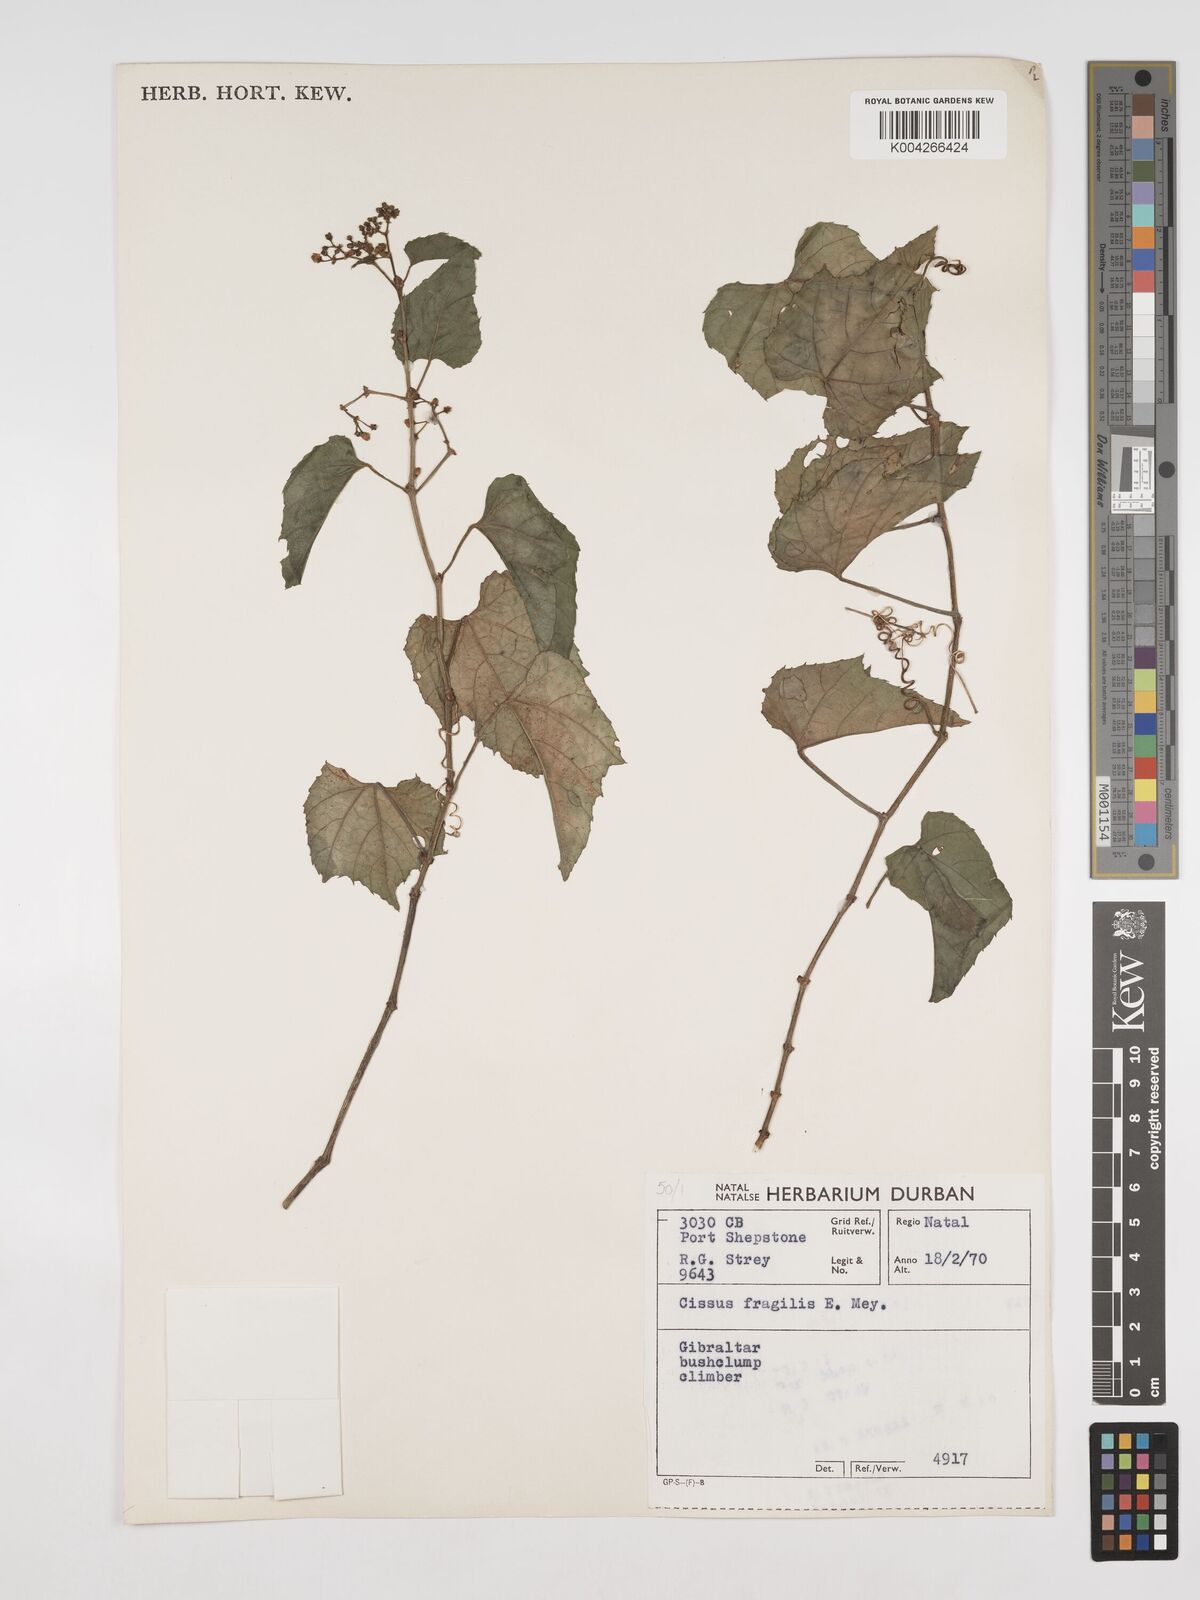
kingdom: Plantae
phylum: Tracheophyta
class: Magnoliopsida
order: Vitales
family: Vitaceae
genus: Cissus
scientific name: Cissus fragilis
